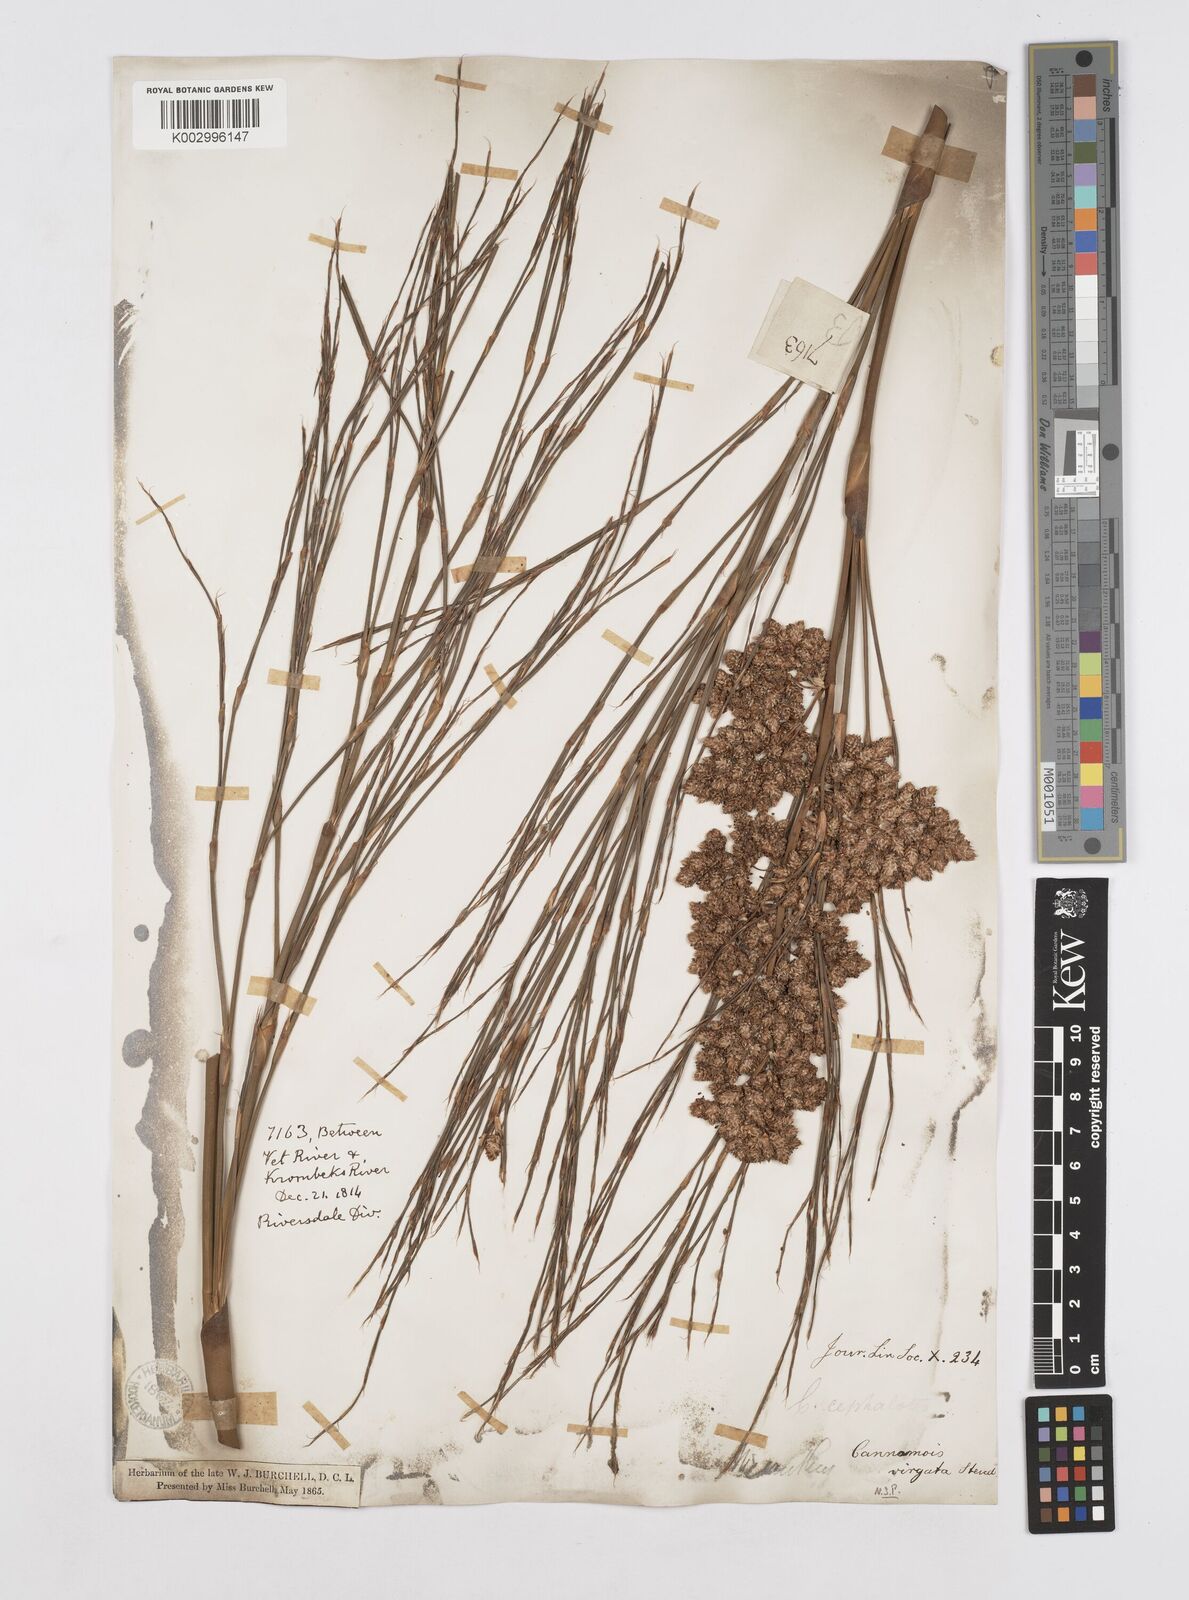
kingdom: Plantae
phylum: Tracheophyta
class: Liliopsida
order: Poales
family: Restionaceae
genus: Cannomois
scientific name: Cannomois virgata
